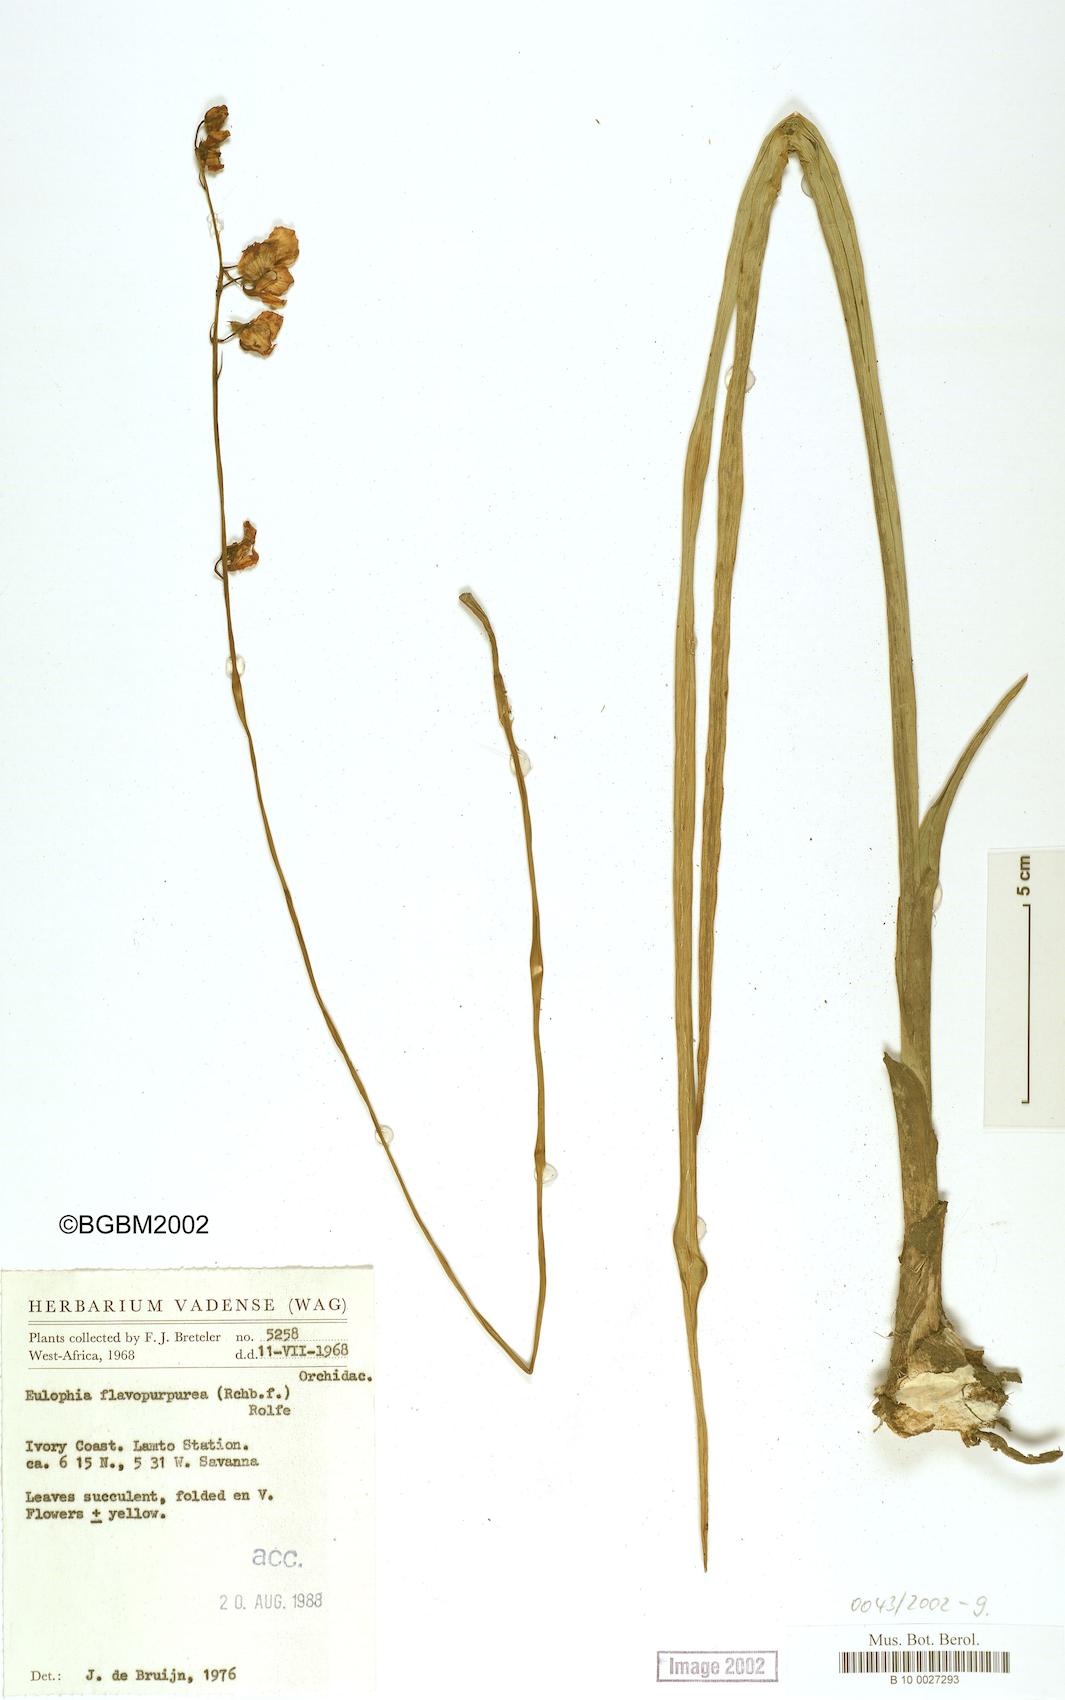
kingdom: Plantae
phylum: Tracheophyta
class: Liliopsida
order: Asparagales
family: Orchidaceae
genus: Eulophia
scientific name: Eulophia flavopurpurea
